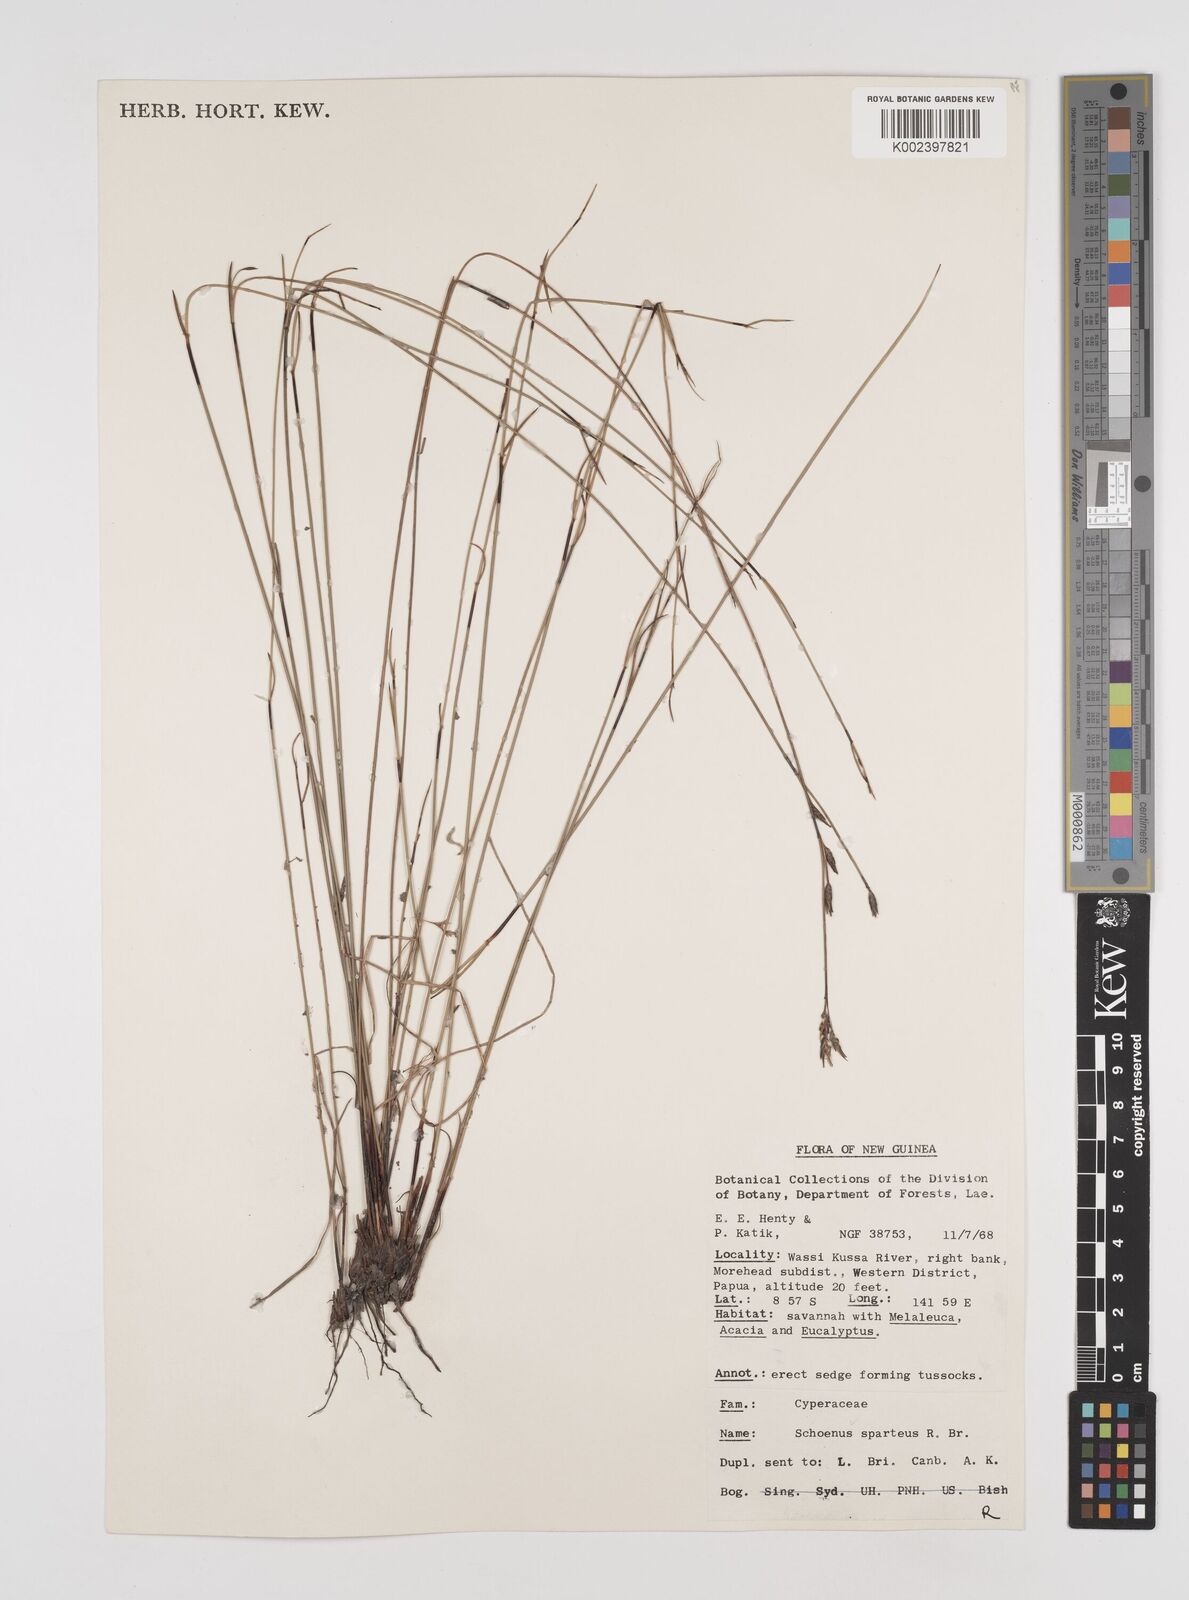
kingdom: Plantae
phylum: Tracheophyta
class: Liliopsida
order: Poales
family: Cyperaceae
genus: Schoenus
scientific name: Schoenus sparteus
